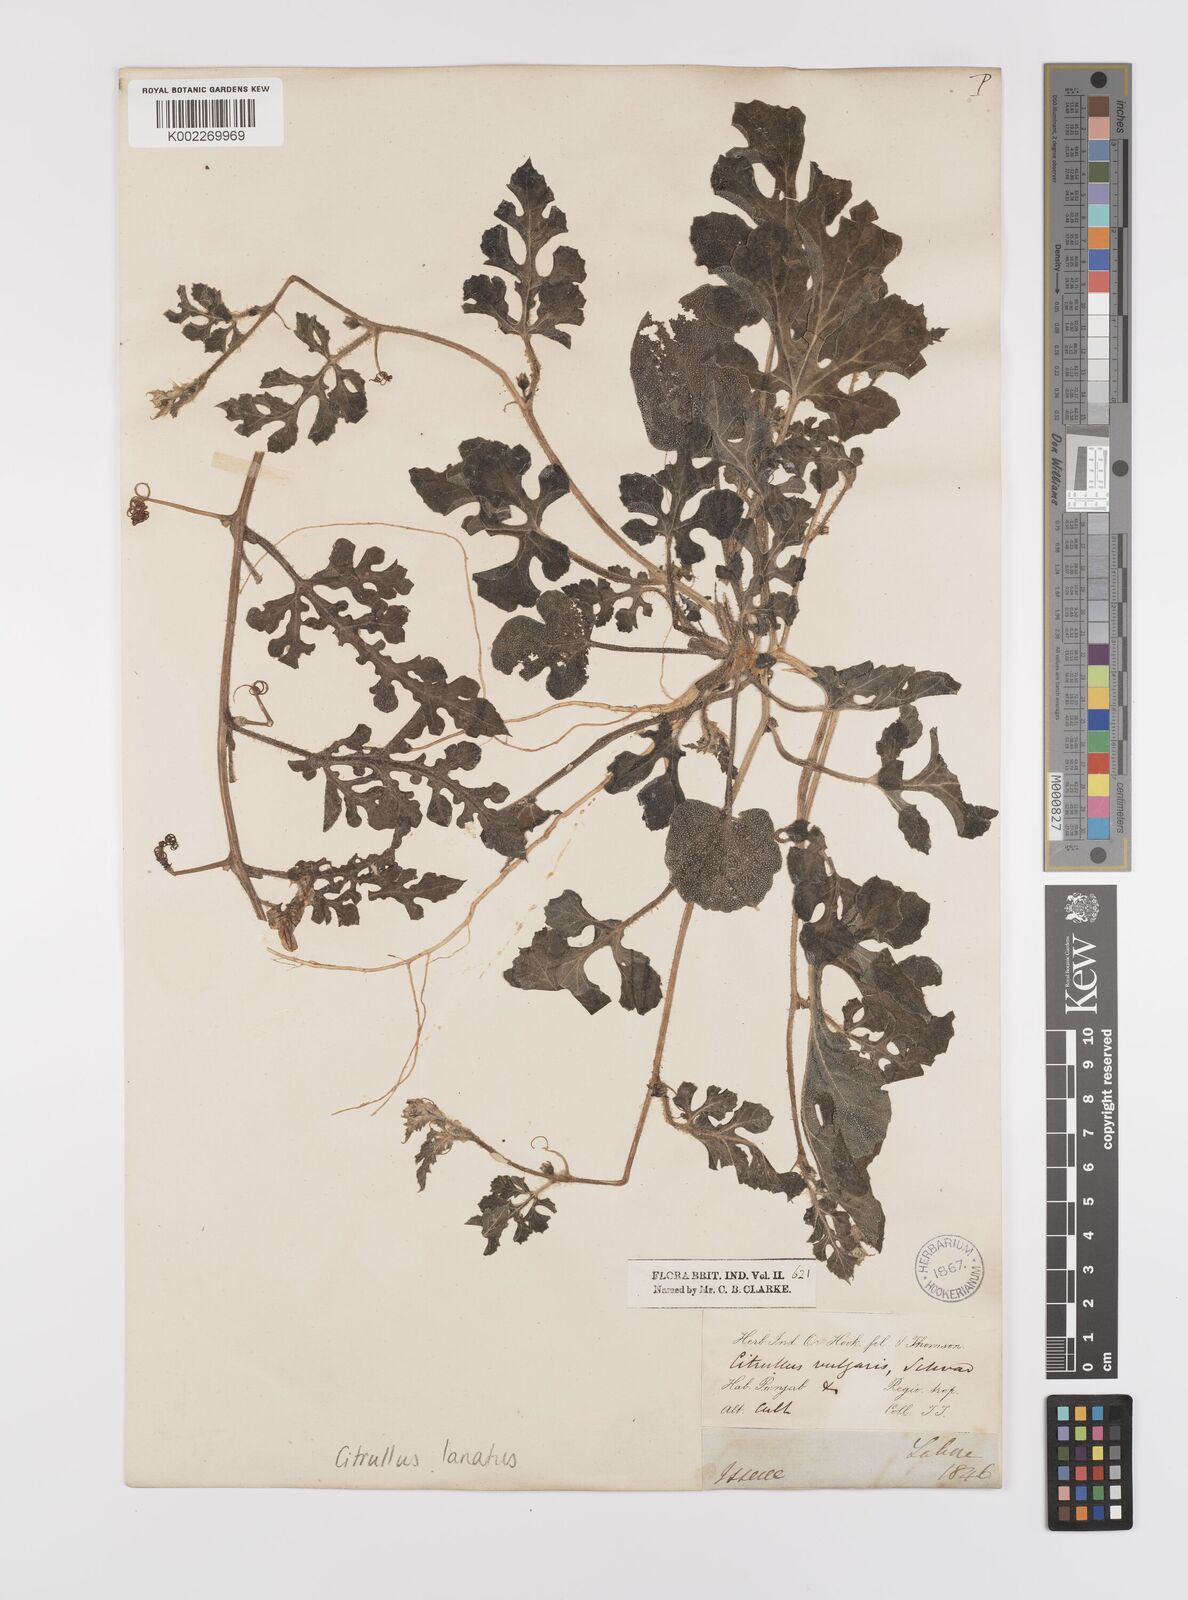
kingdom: Plantae
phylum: Tracheophyta
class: Magnoliopsida
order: Cucurbitales
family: Cucurbitaceae
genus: Citrullus
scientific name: Citrullus lanatus
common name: Watermelon
